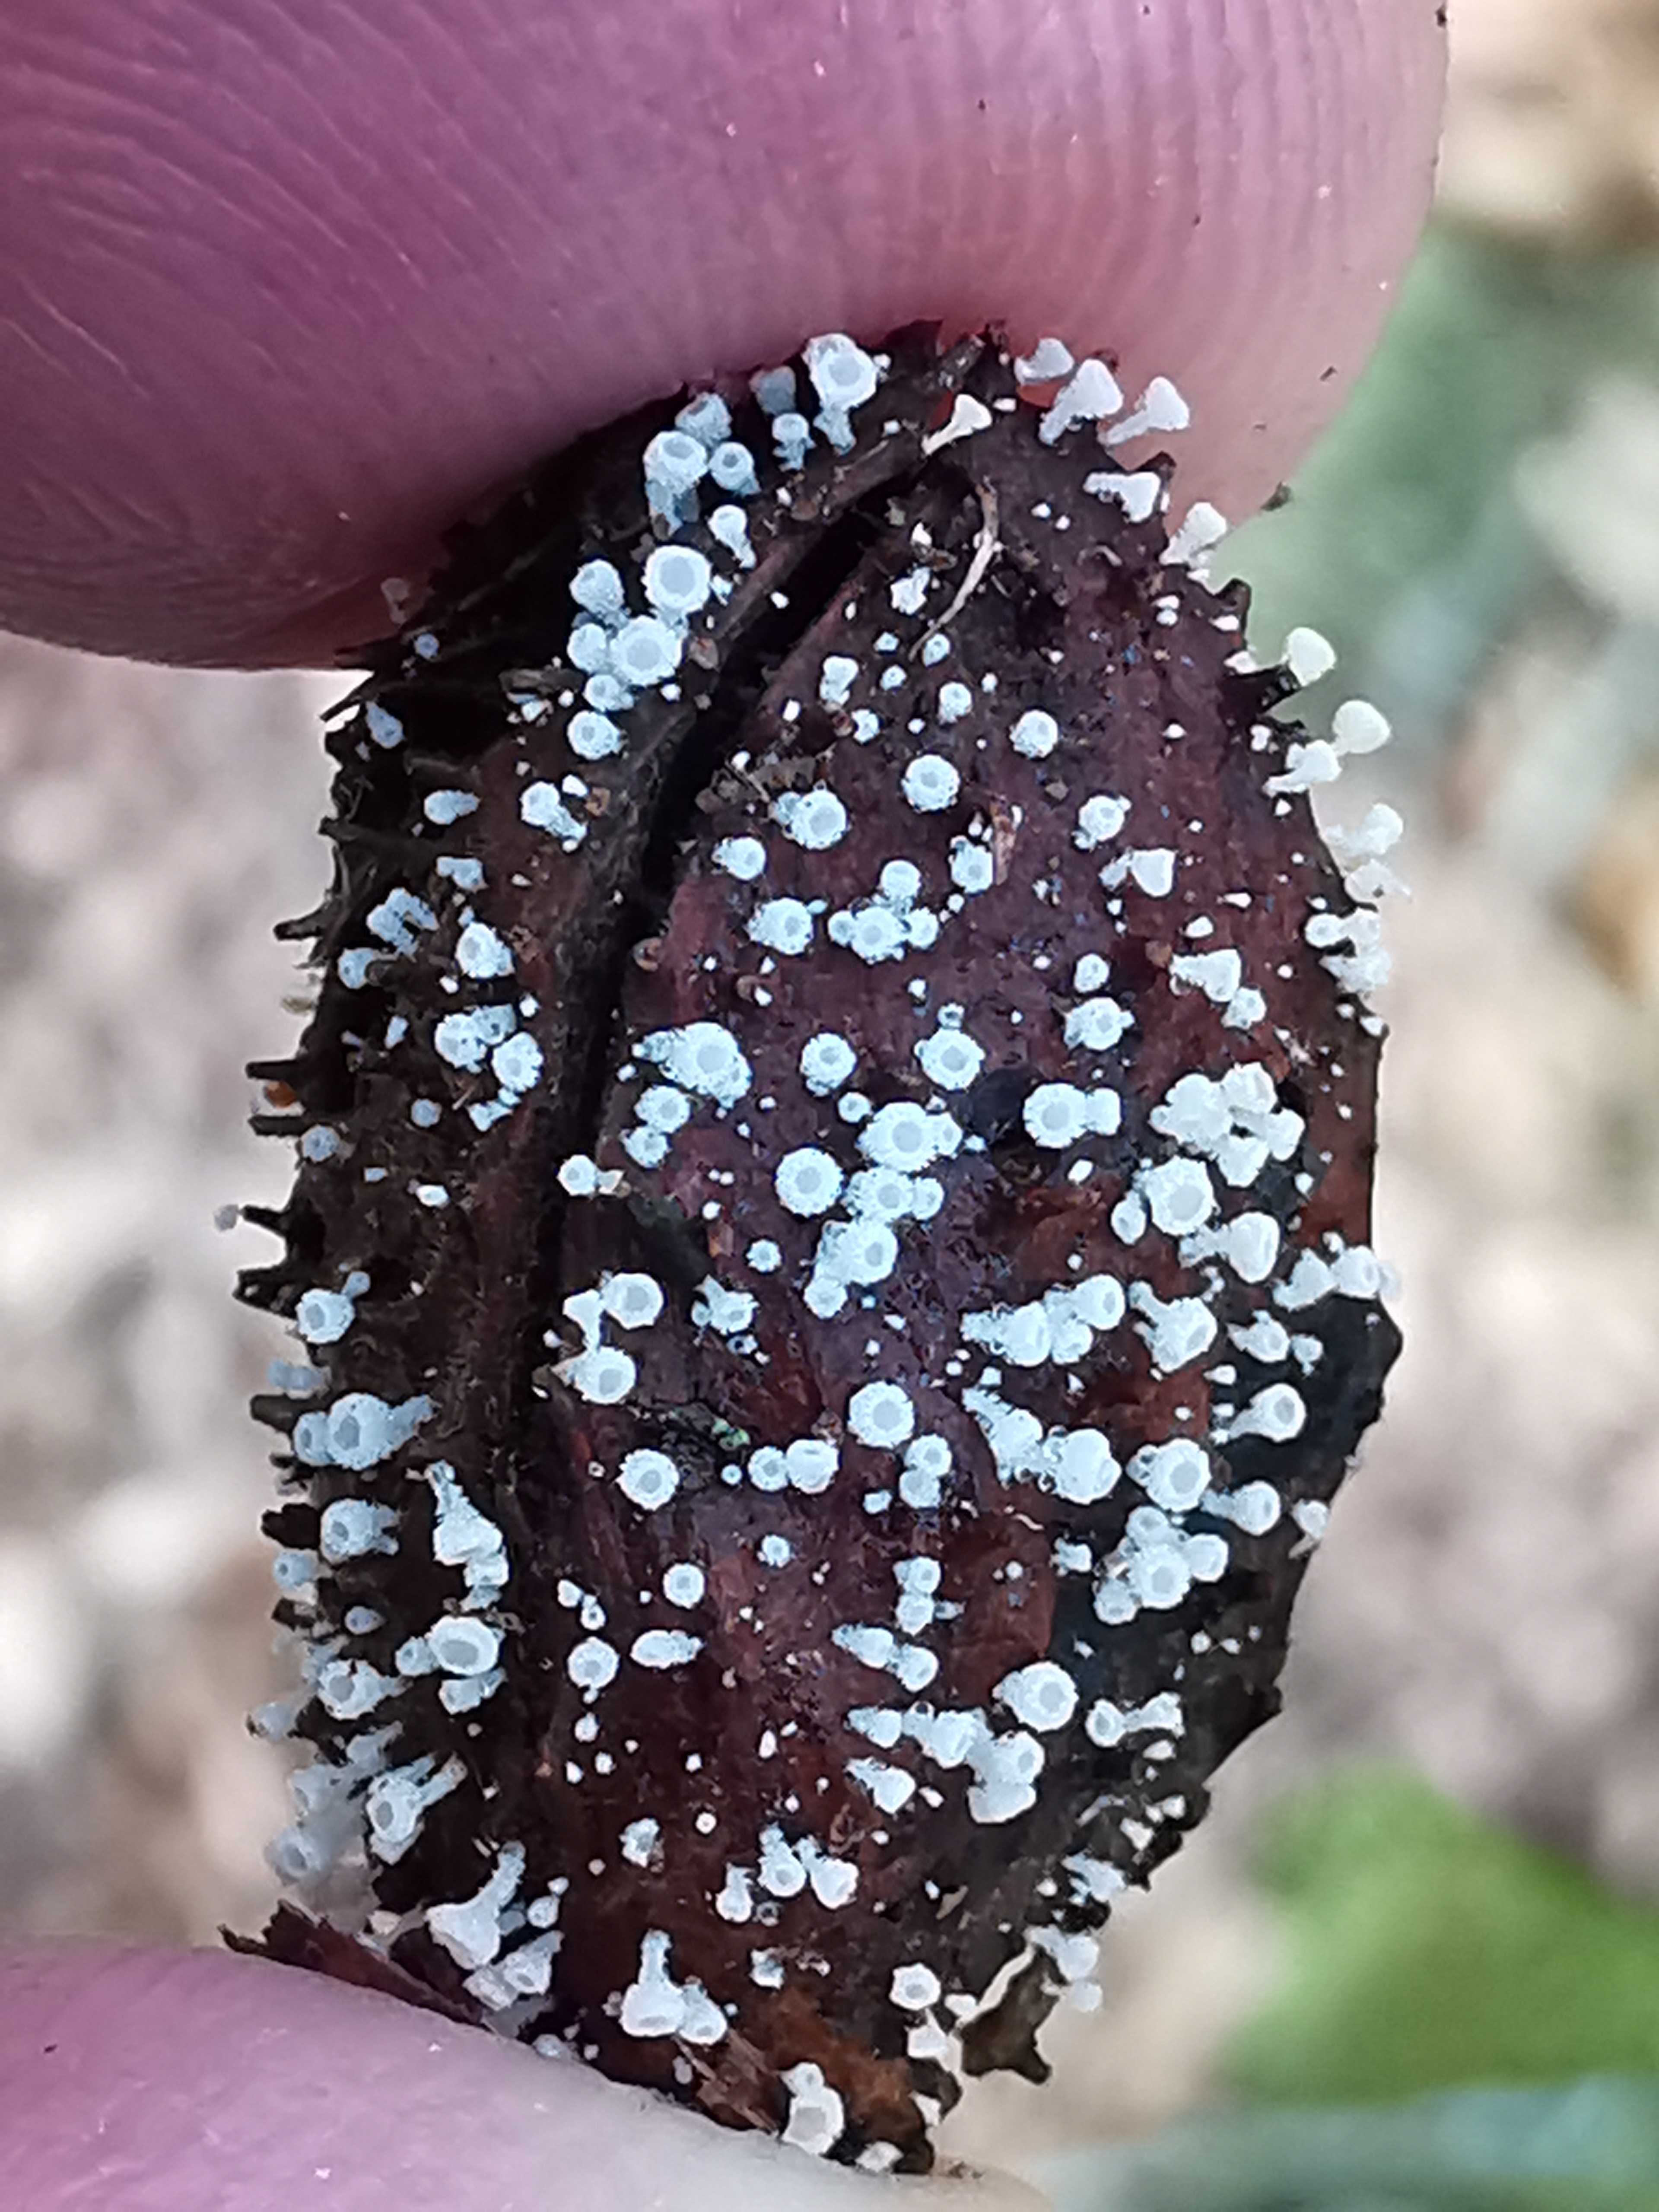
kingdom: Fungi
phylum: Ascomycota
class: Leotiomycetes
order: Helotiales
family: Lachnaceae
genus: Lachnum
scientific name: Lachnum virgineum
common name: jomfru-frynseskive
